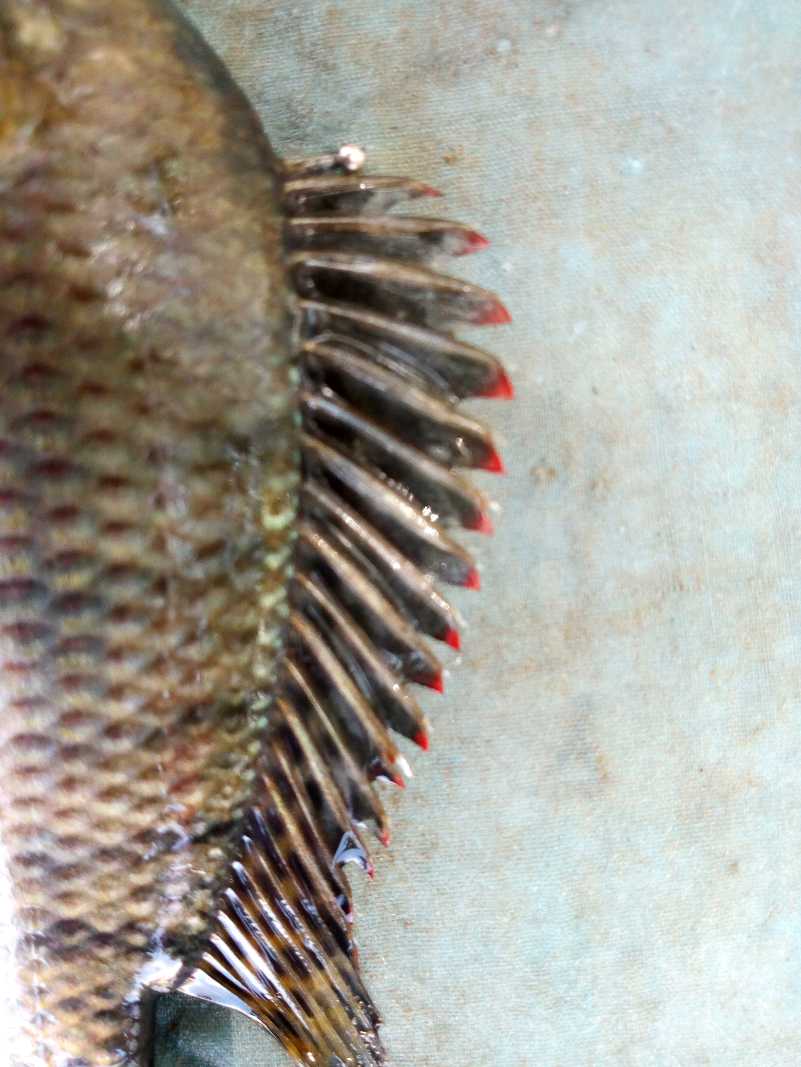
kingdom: Animalia
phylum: Chordata
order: Perciformes
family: Cichlidae
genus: Oreochromis
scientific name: Oreochromis spilurus
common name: Sabaki tilapia
